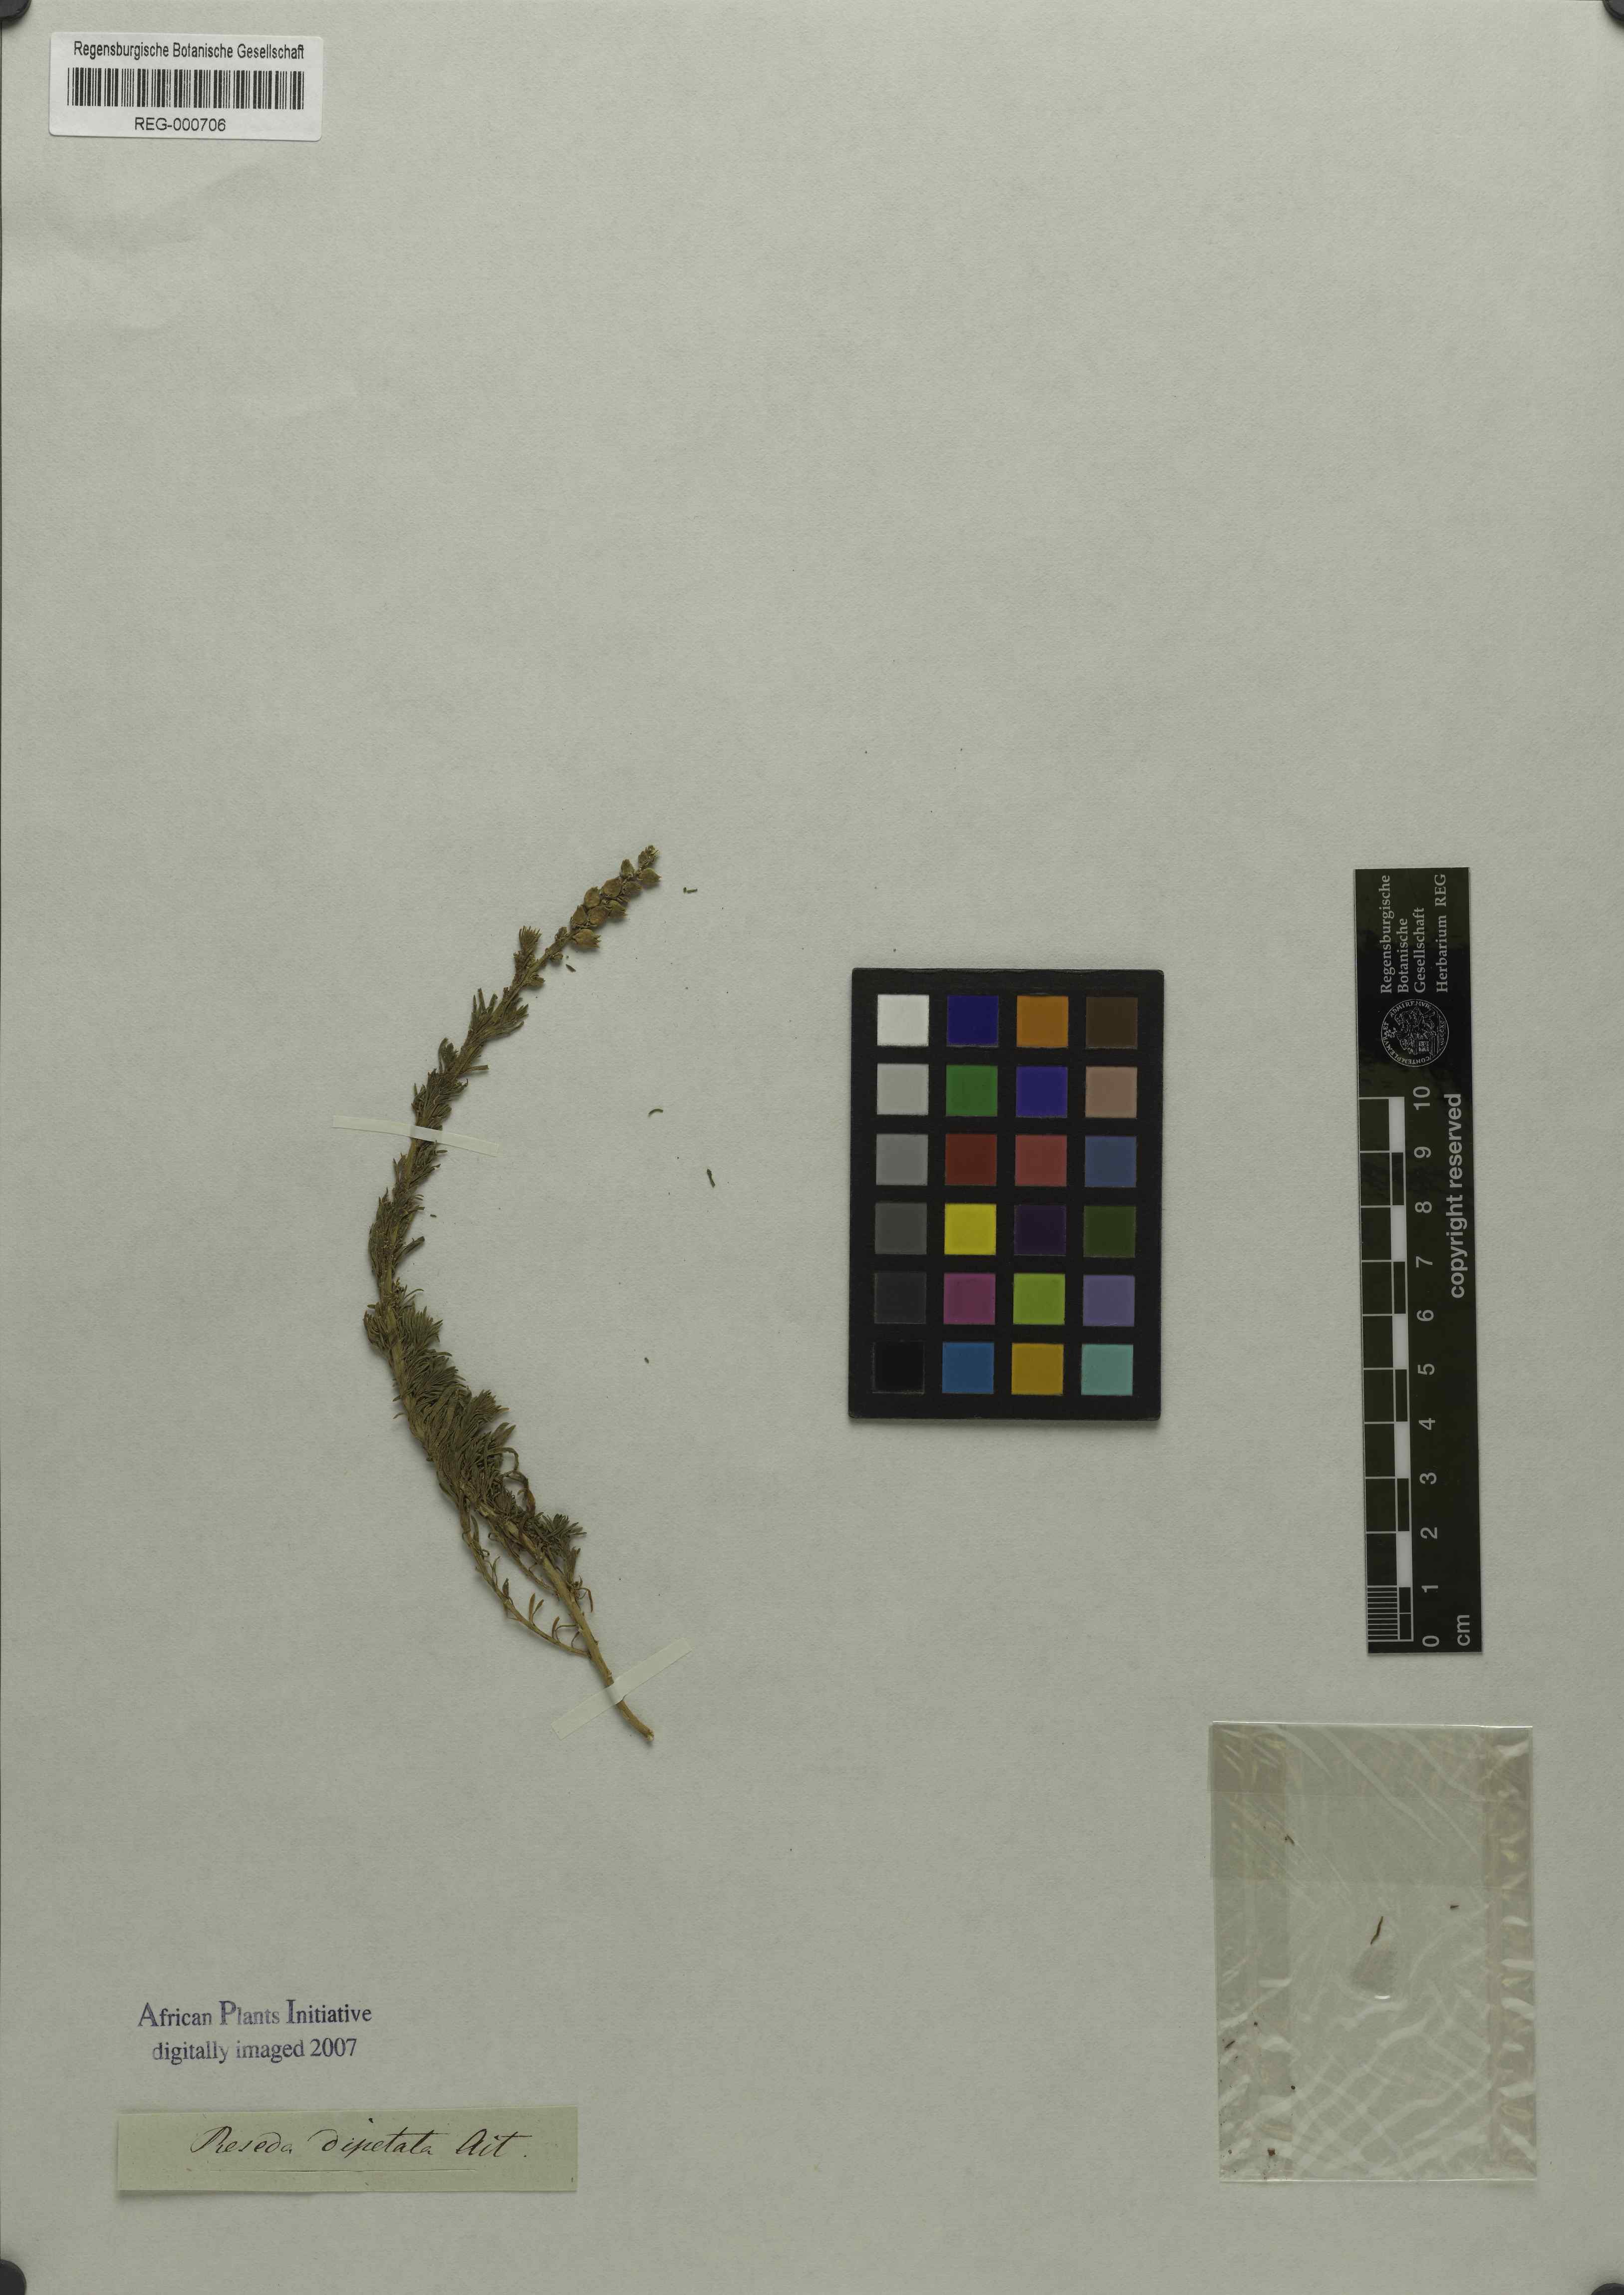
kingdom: Plantae
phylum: Tracheophyta
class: Magnoliopsida
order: Brassicales
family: Resedaceae
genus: Oligomeris
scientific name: Oligomeris dipetala
